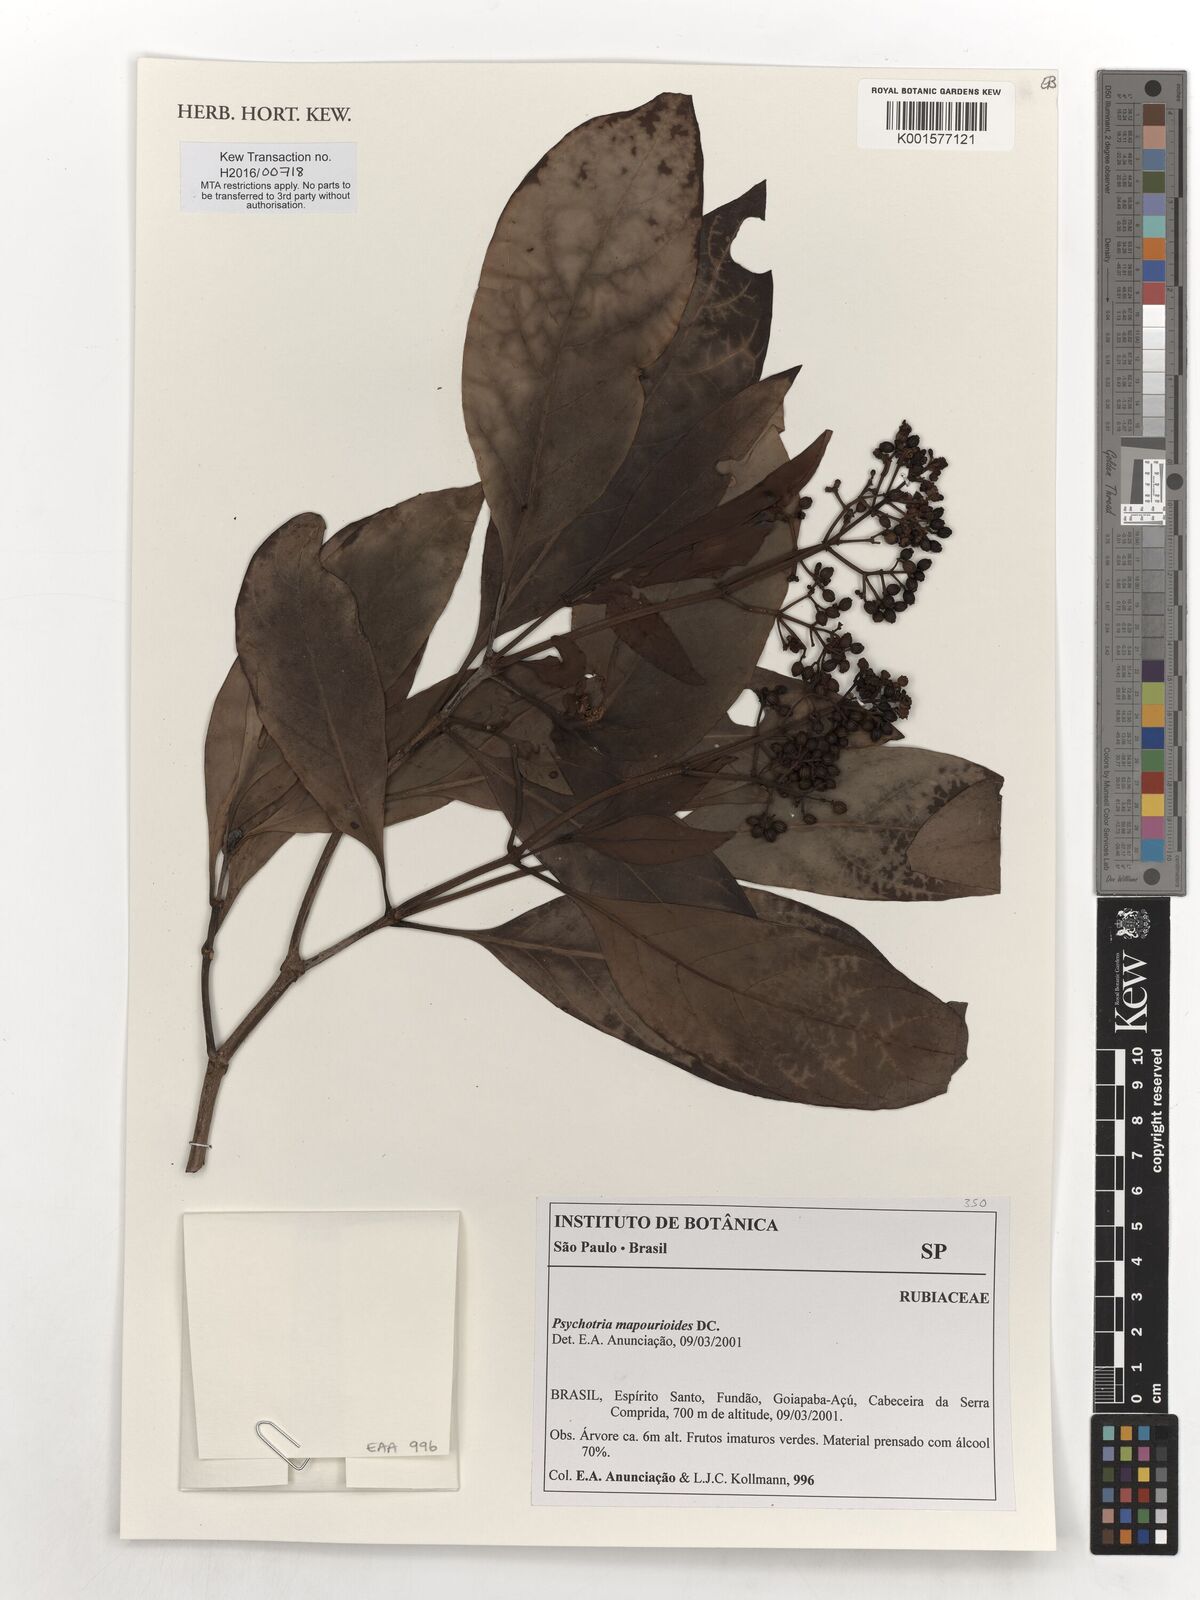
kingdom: Plantae
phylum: Tracheophyta
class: Magnoliopsida
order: Gentianales
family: Rubiaceae
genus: Psychotria
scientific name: Psychotria pedunculosa
